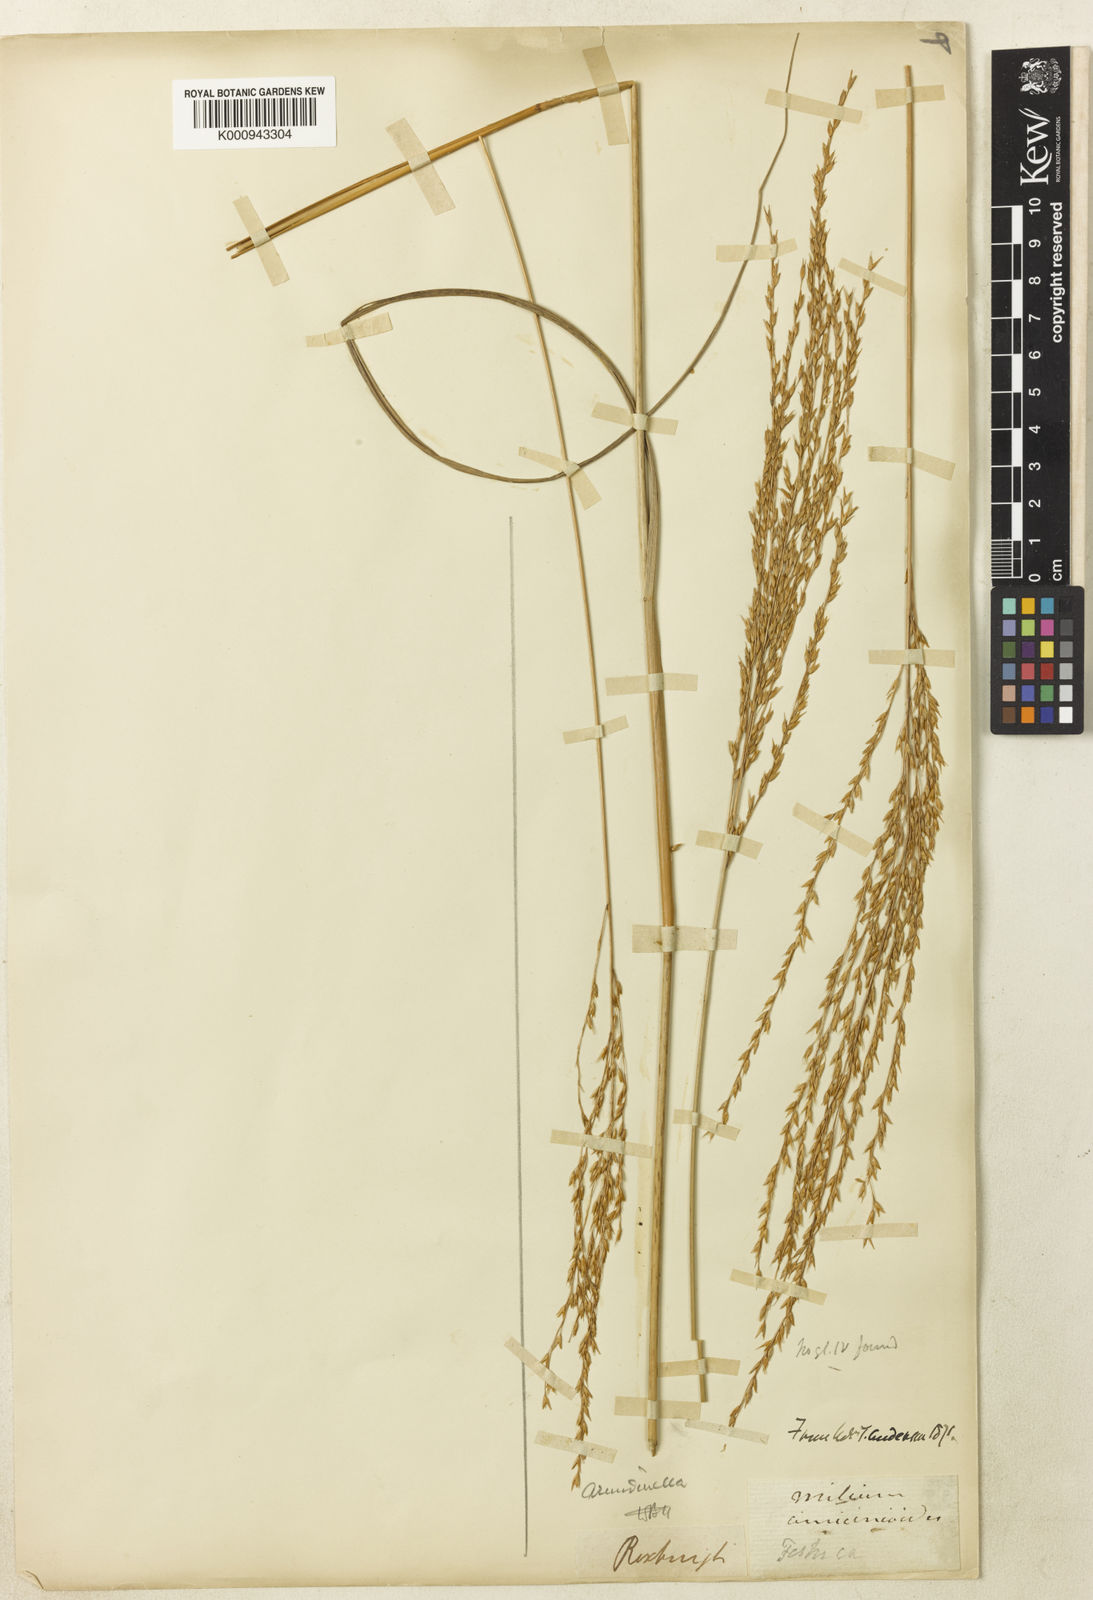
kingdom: Plantae
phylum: Tracheophyta
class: Liliopsida
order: Poales
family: Poaceae
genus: Arundinella
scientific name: Arundinella setosa
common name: Reed grass
